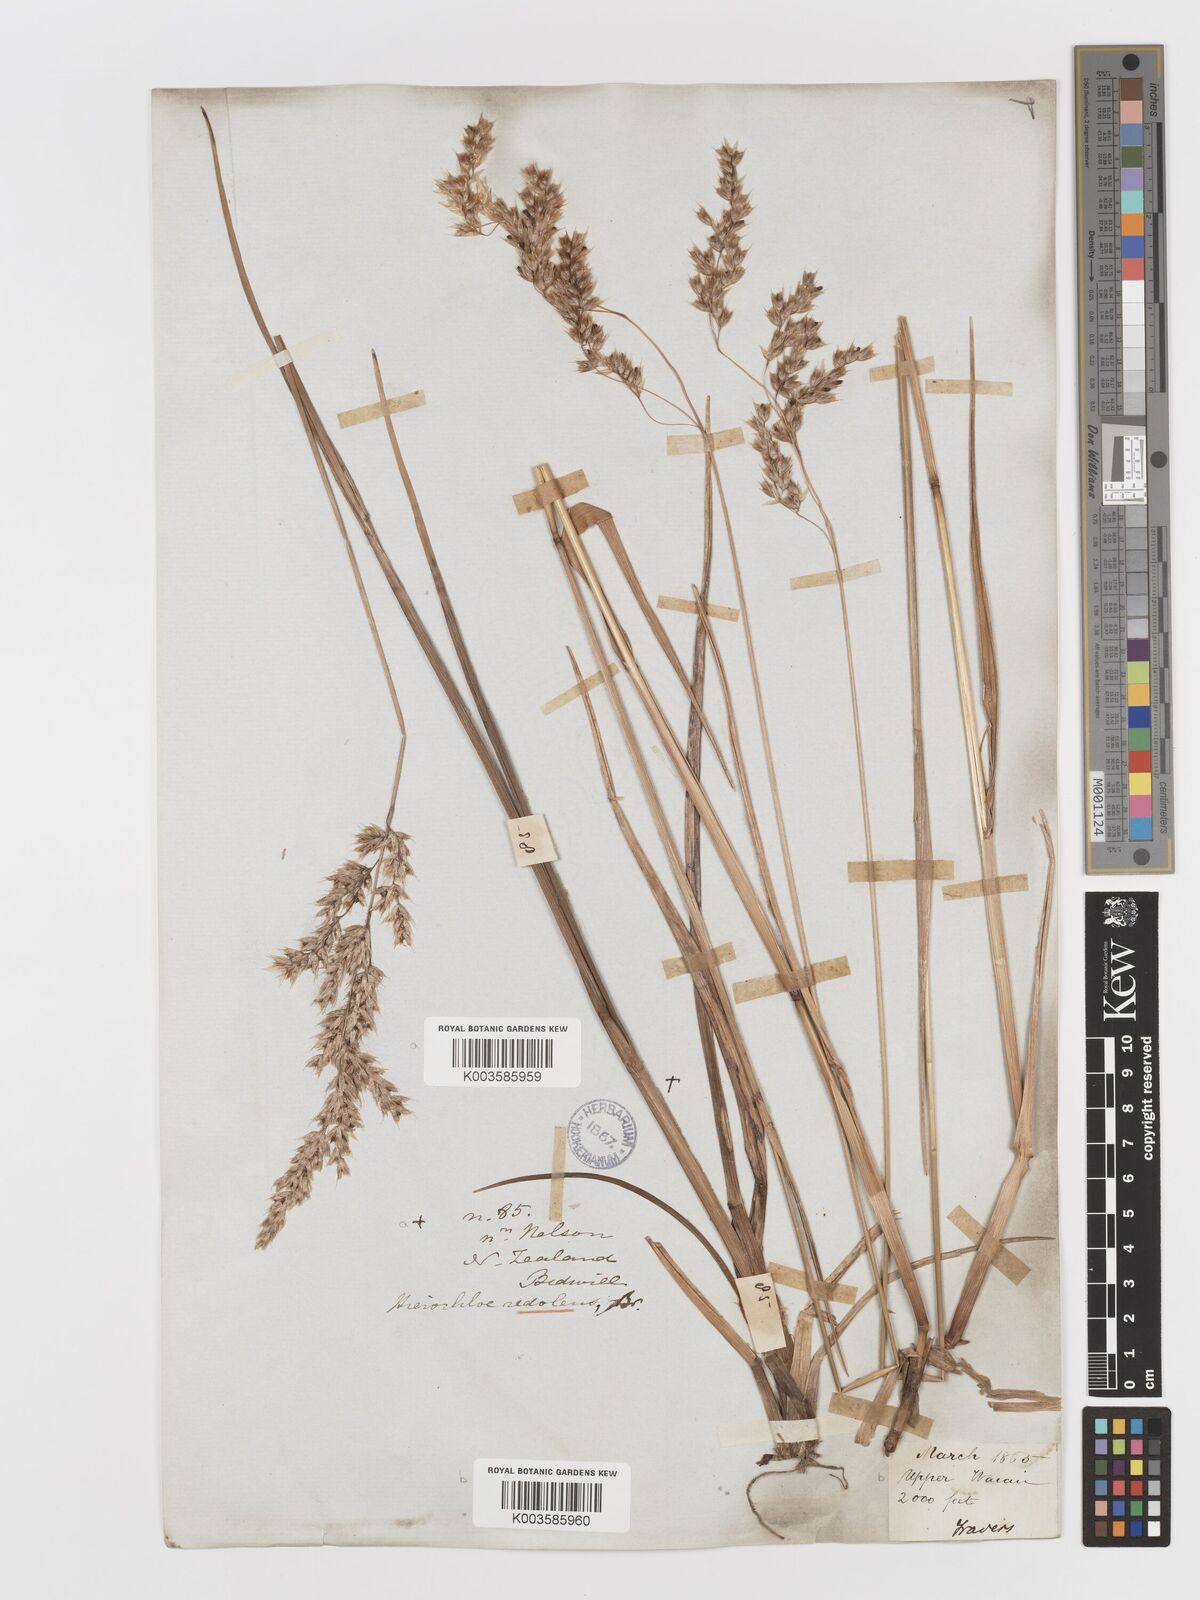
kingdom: Plantae
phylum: Tracheophyta
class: Liliopsida
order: Poales
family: Poaceae
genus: Anthoxanthum
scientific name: Anthoxanthum redolens
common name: Sweet holy grass
